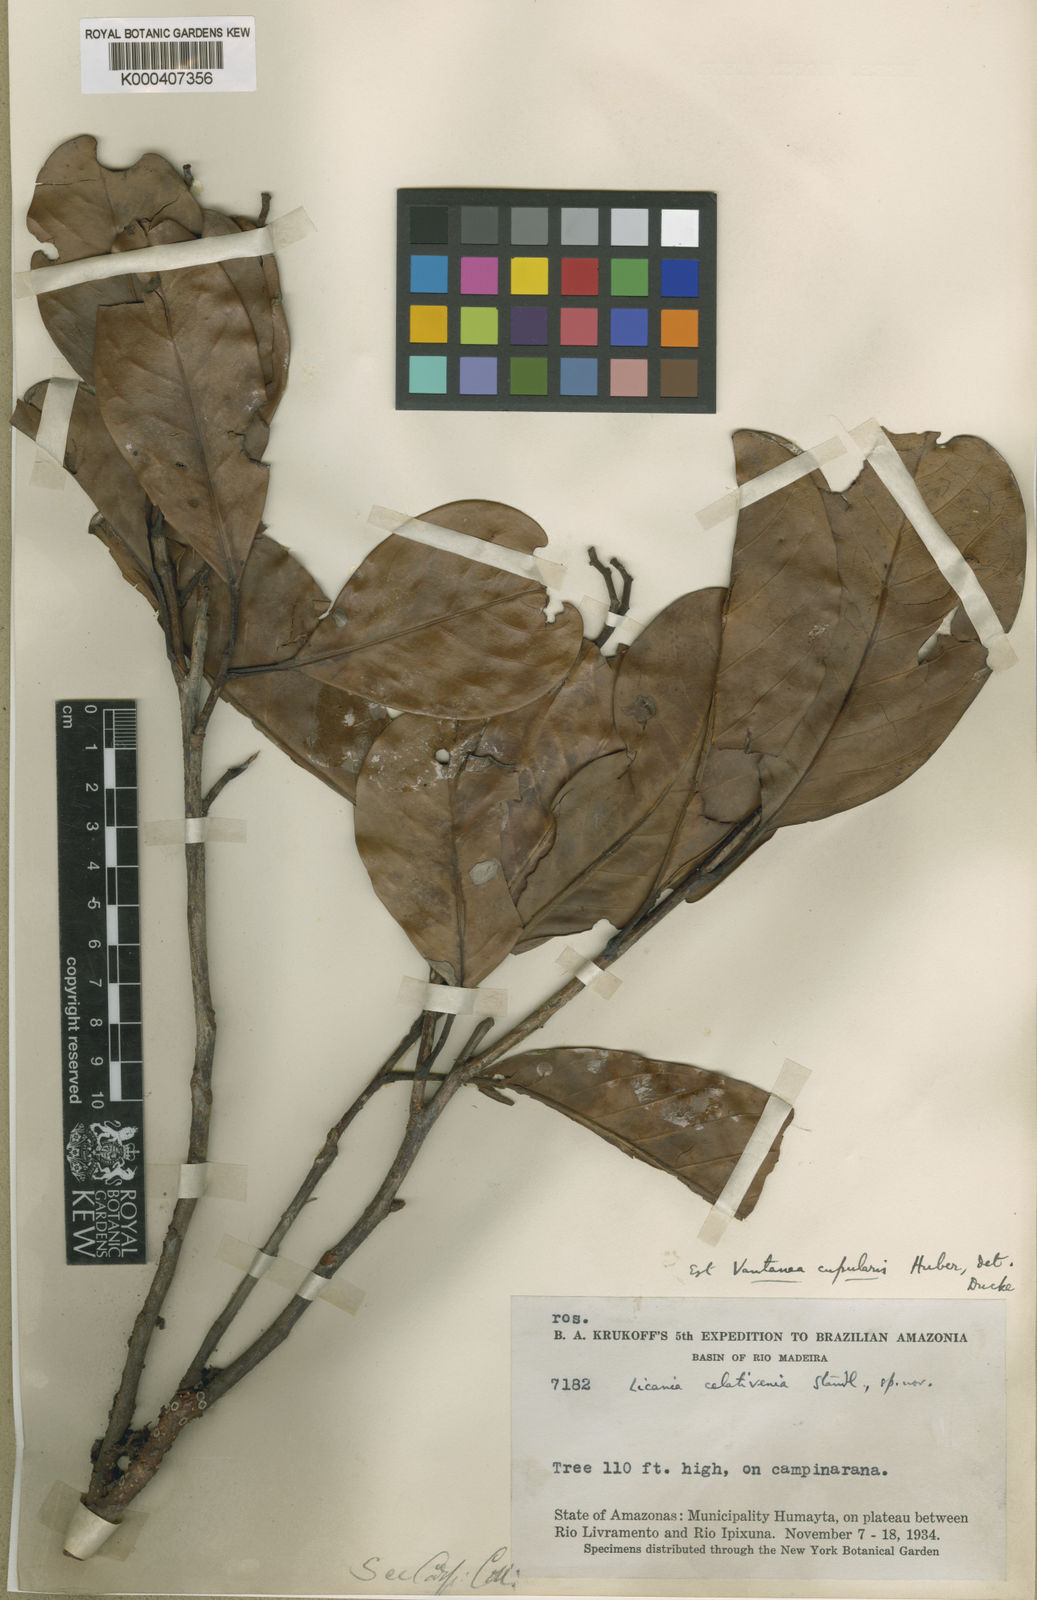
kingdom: Plantae
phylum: Tracheophyta
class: Magnoliopsida
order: Malpighiales
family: Humiriaceae
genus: Vantanea
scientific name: Vantanea paraensis
